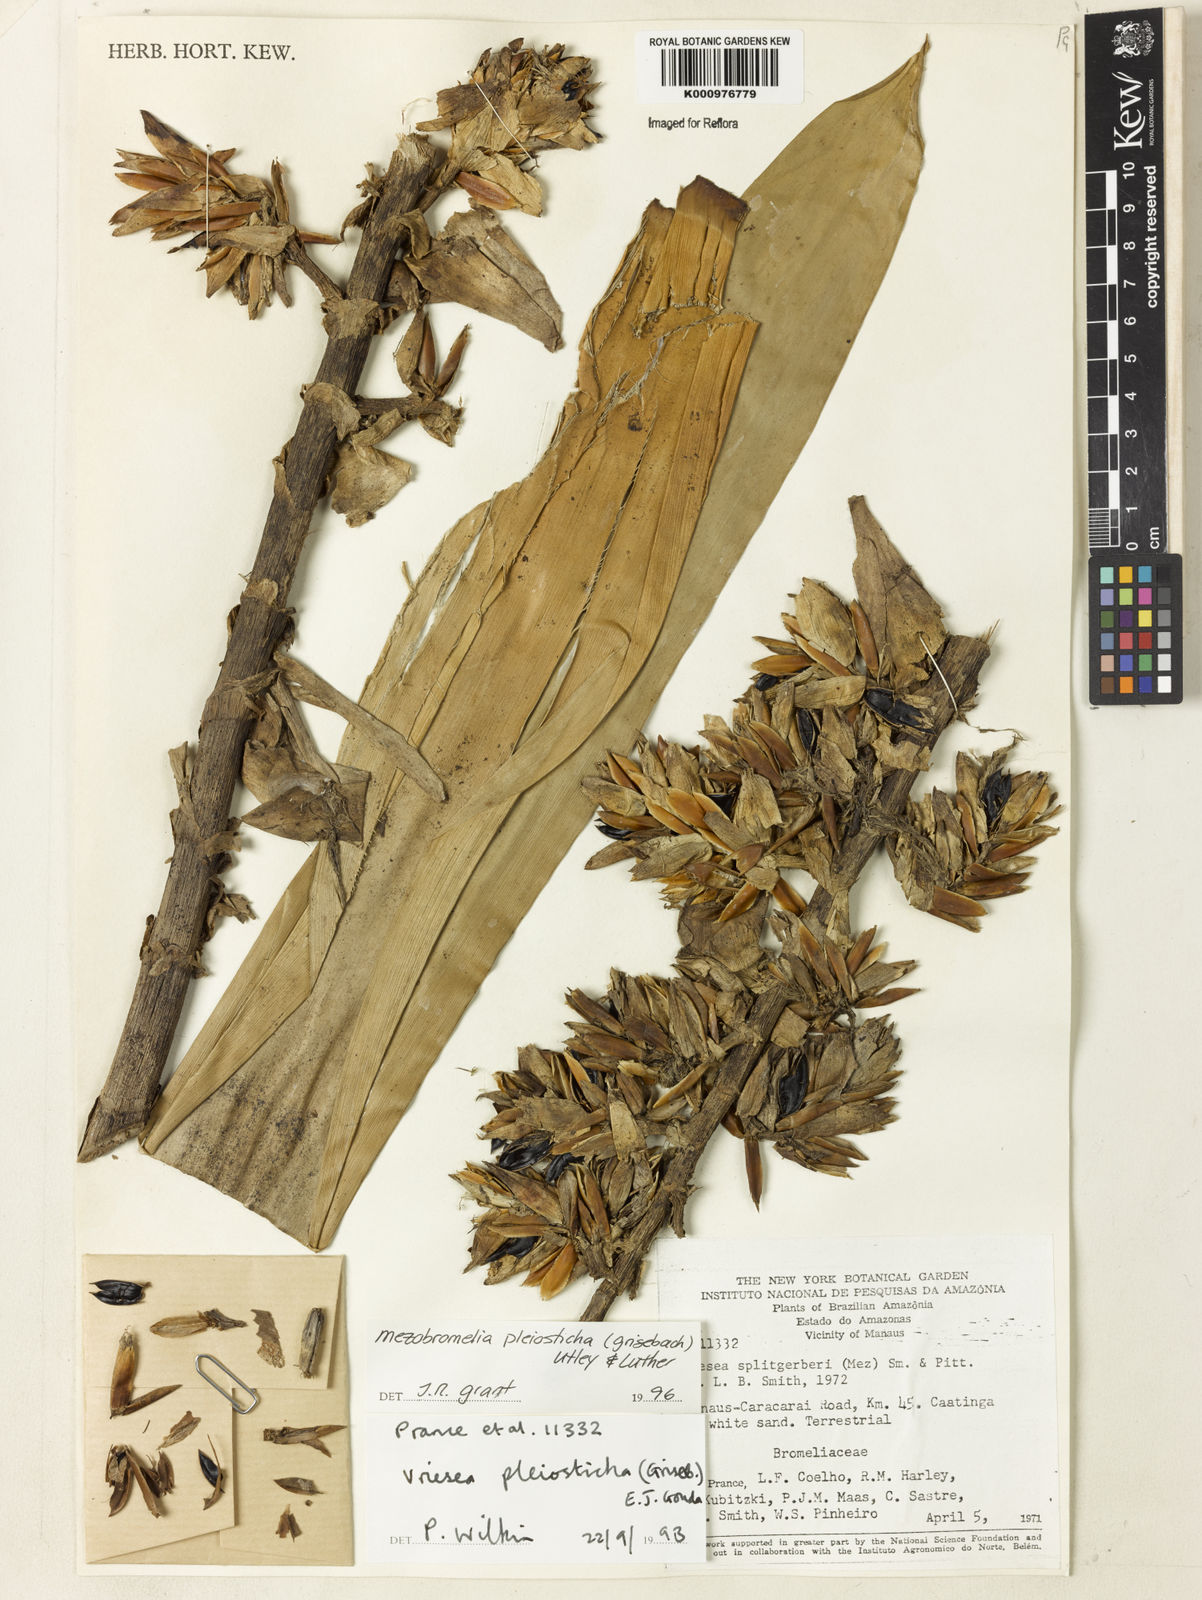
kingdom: Plantae
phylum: Tracheophyta
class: Liliopsida
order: Poales
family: Bromeliaceae
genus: Vriesea
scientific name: Vriesea pleiosticha
